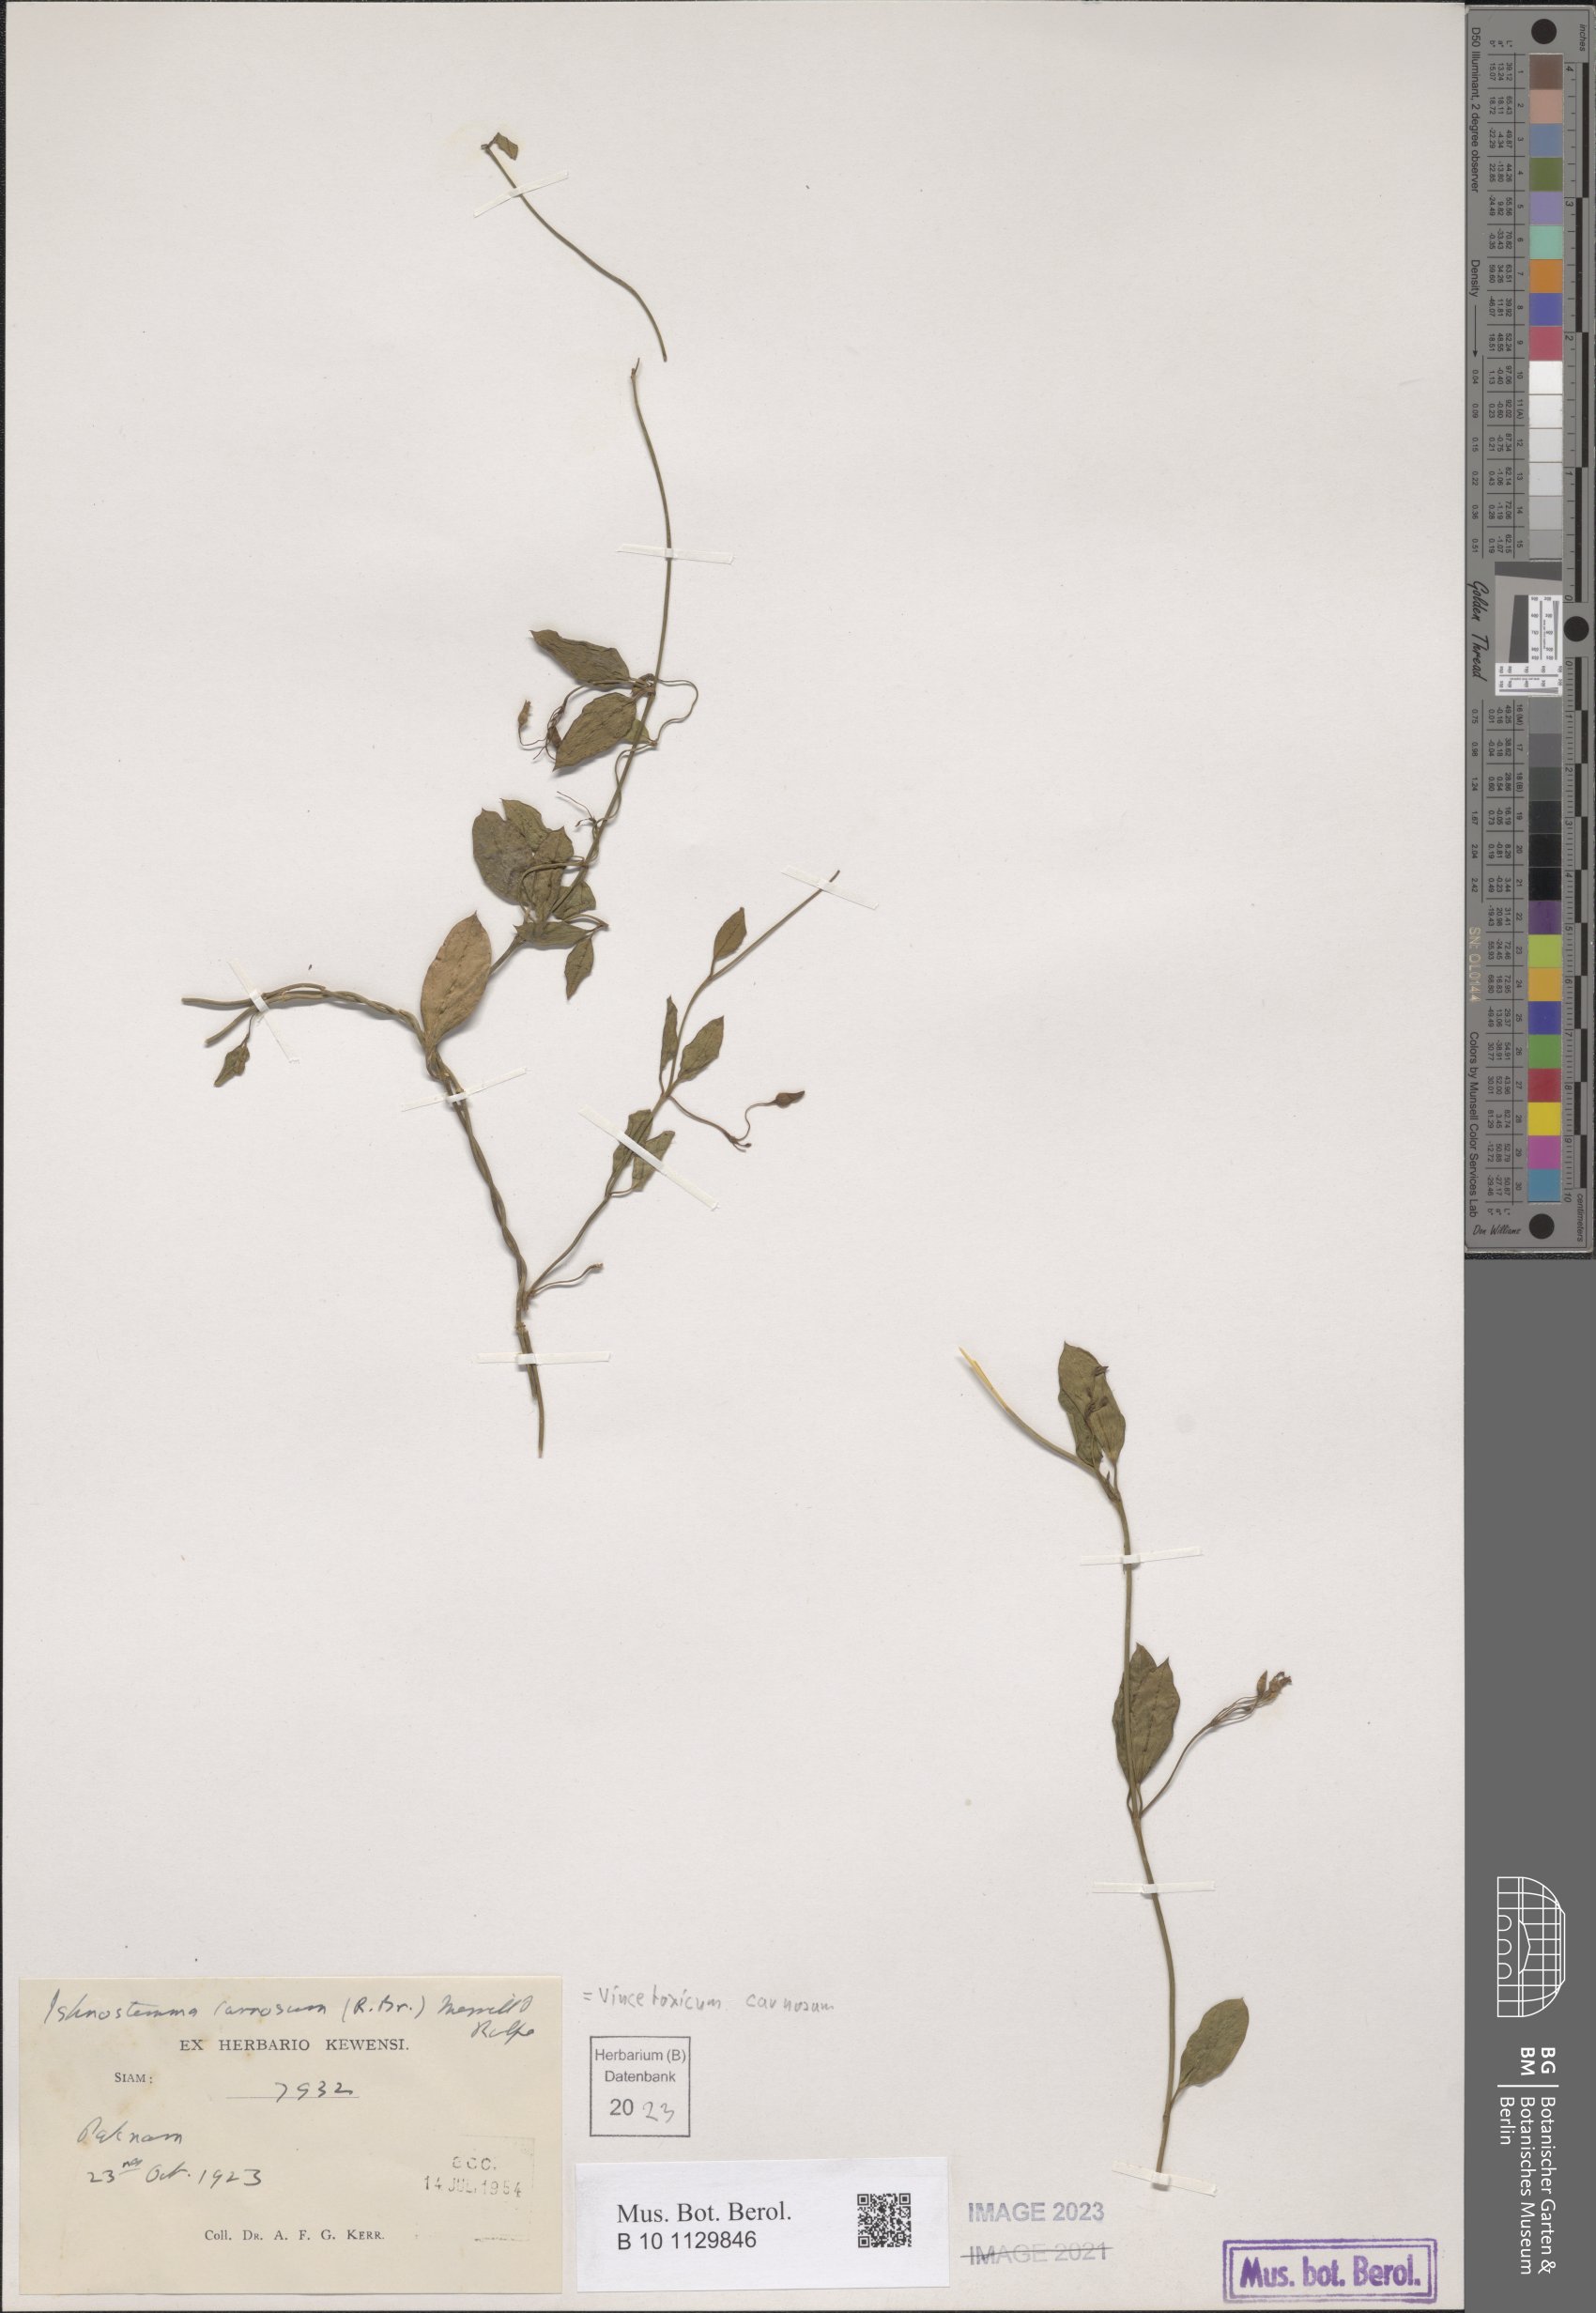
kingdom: Plantae
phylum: Tracheophyta
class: Magnoliopsida
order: Gentianales
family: Apocynaceae
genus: Vincetoxicum
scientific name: Vincetoxicum carnosum
